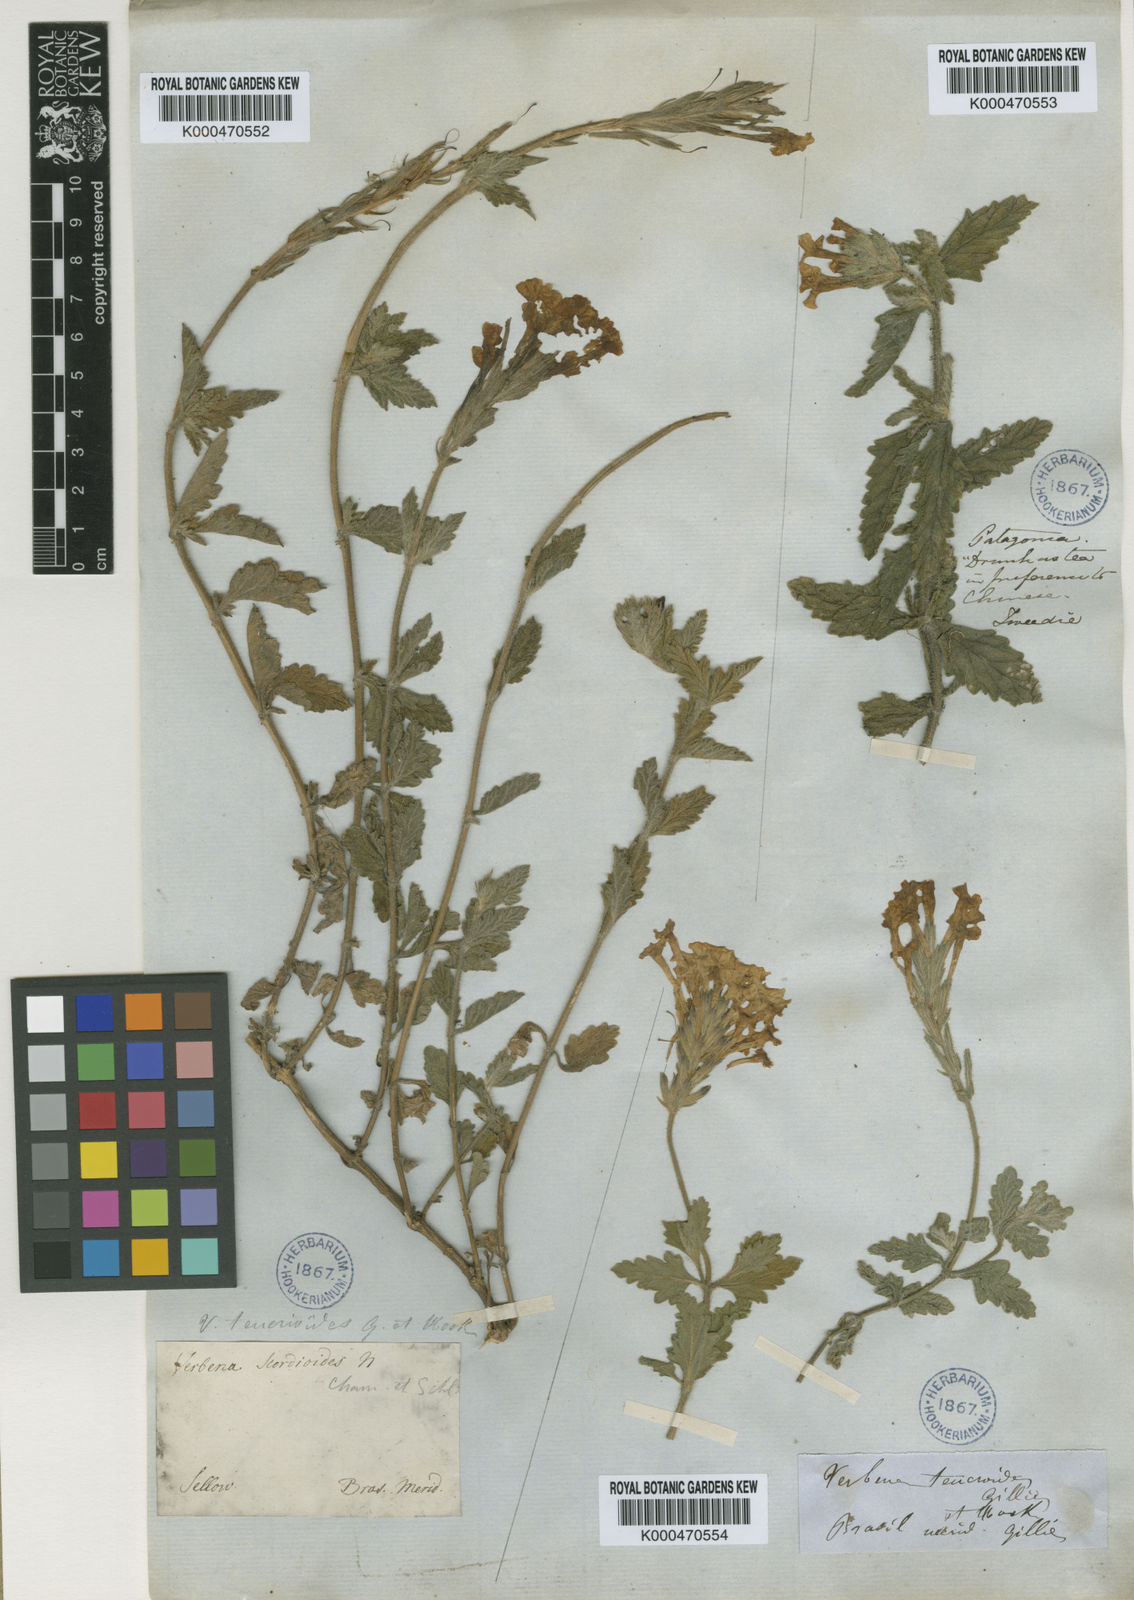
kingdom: Plantae
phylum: Tracheophyta
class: Magnoliopsida
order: Lamiales
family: Verbenaceae
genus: Verbena
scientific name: Verbena platensis
